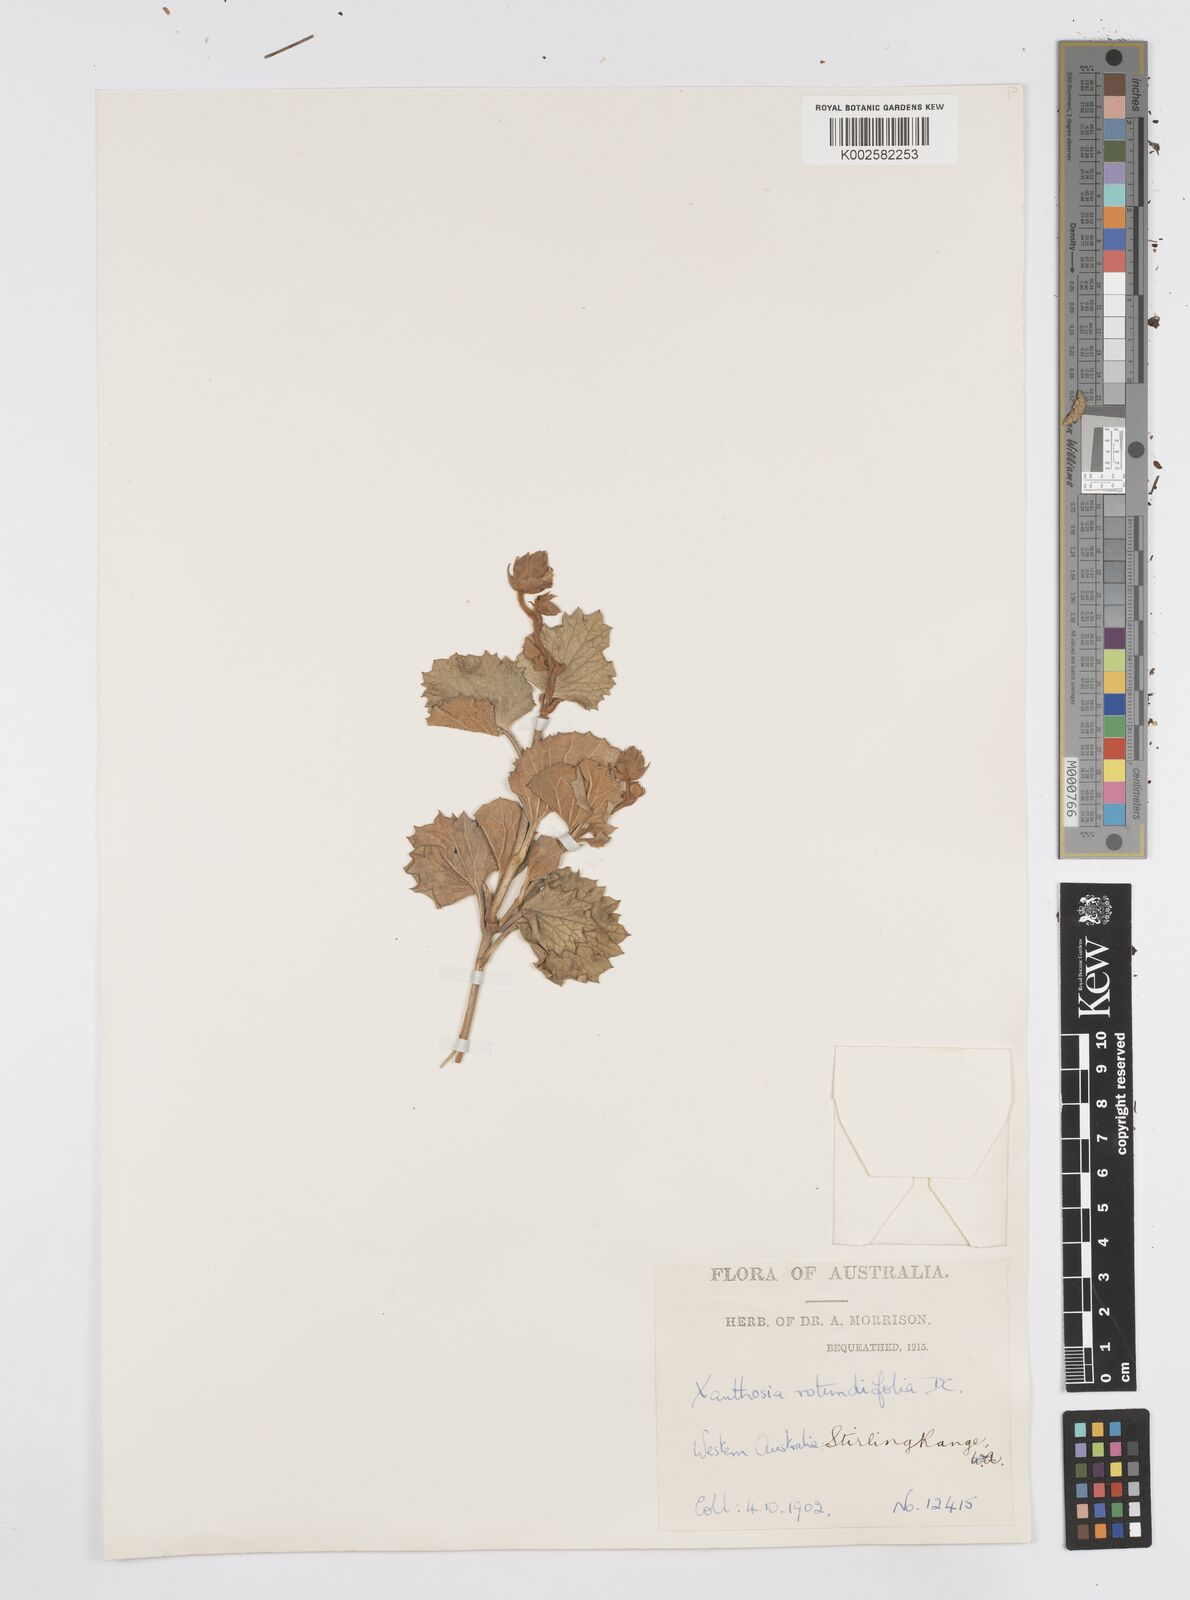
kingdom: Plantae
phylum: Tracheophyta
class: Magnoliopsida
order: Apiales
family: Apiaceae
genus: Xanthosia
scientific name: Xanthosia rotundifolia
